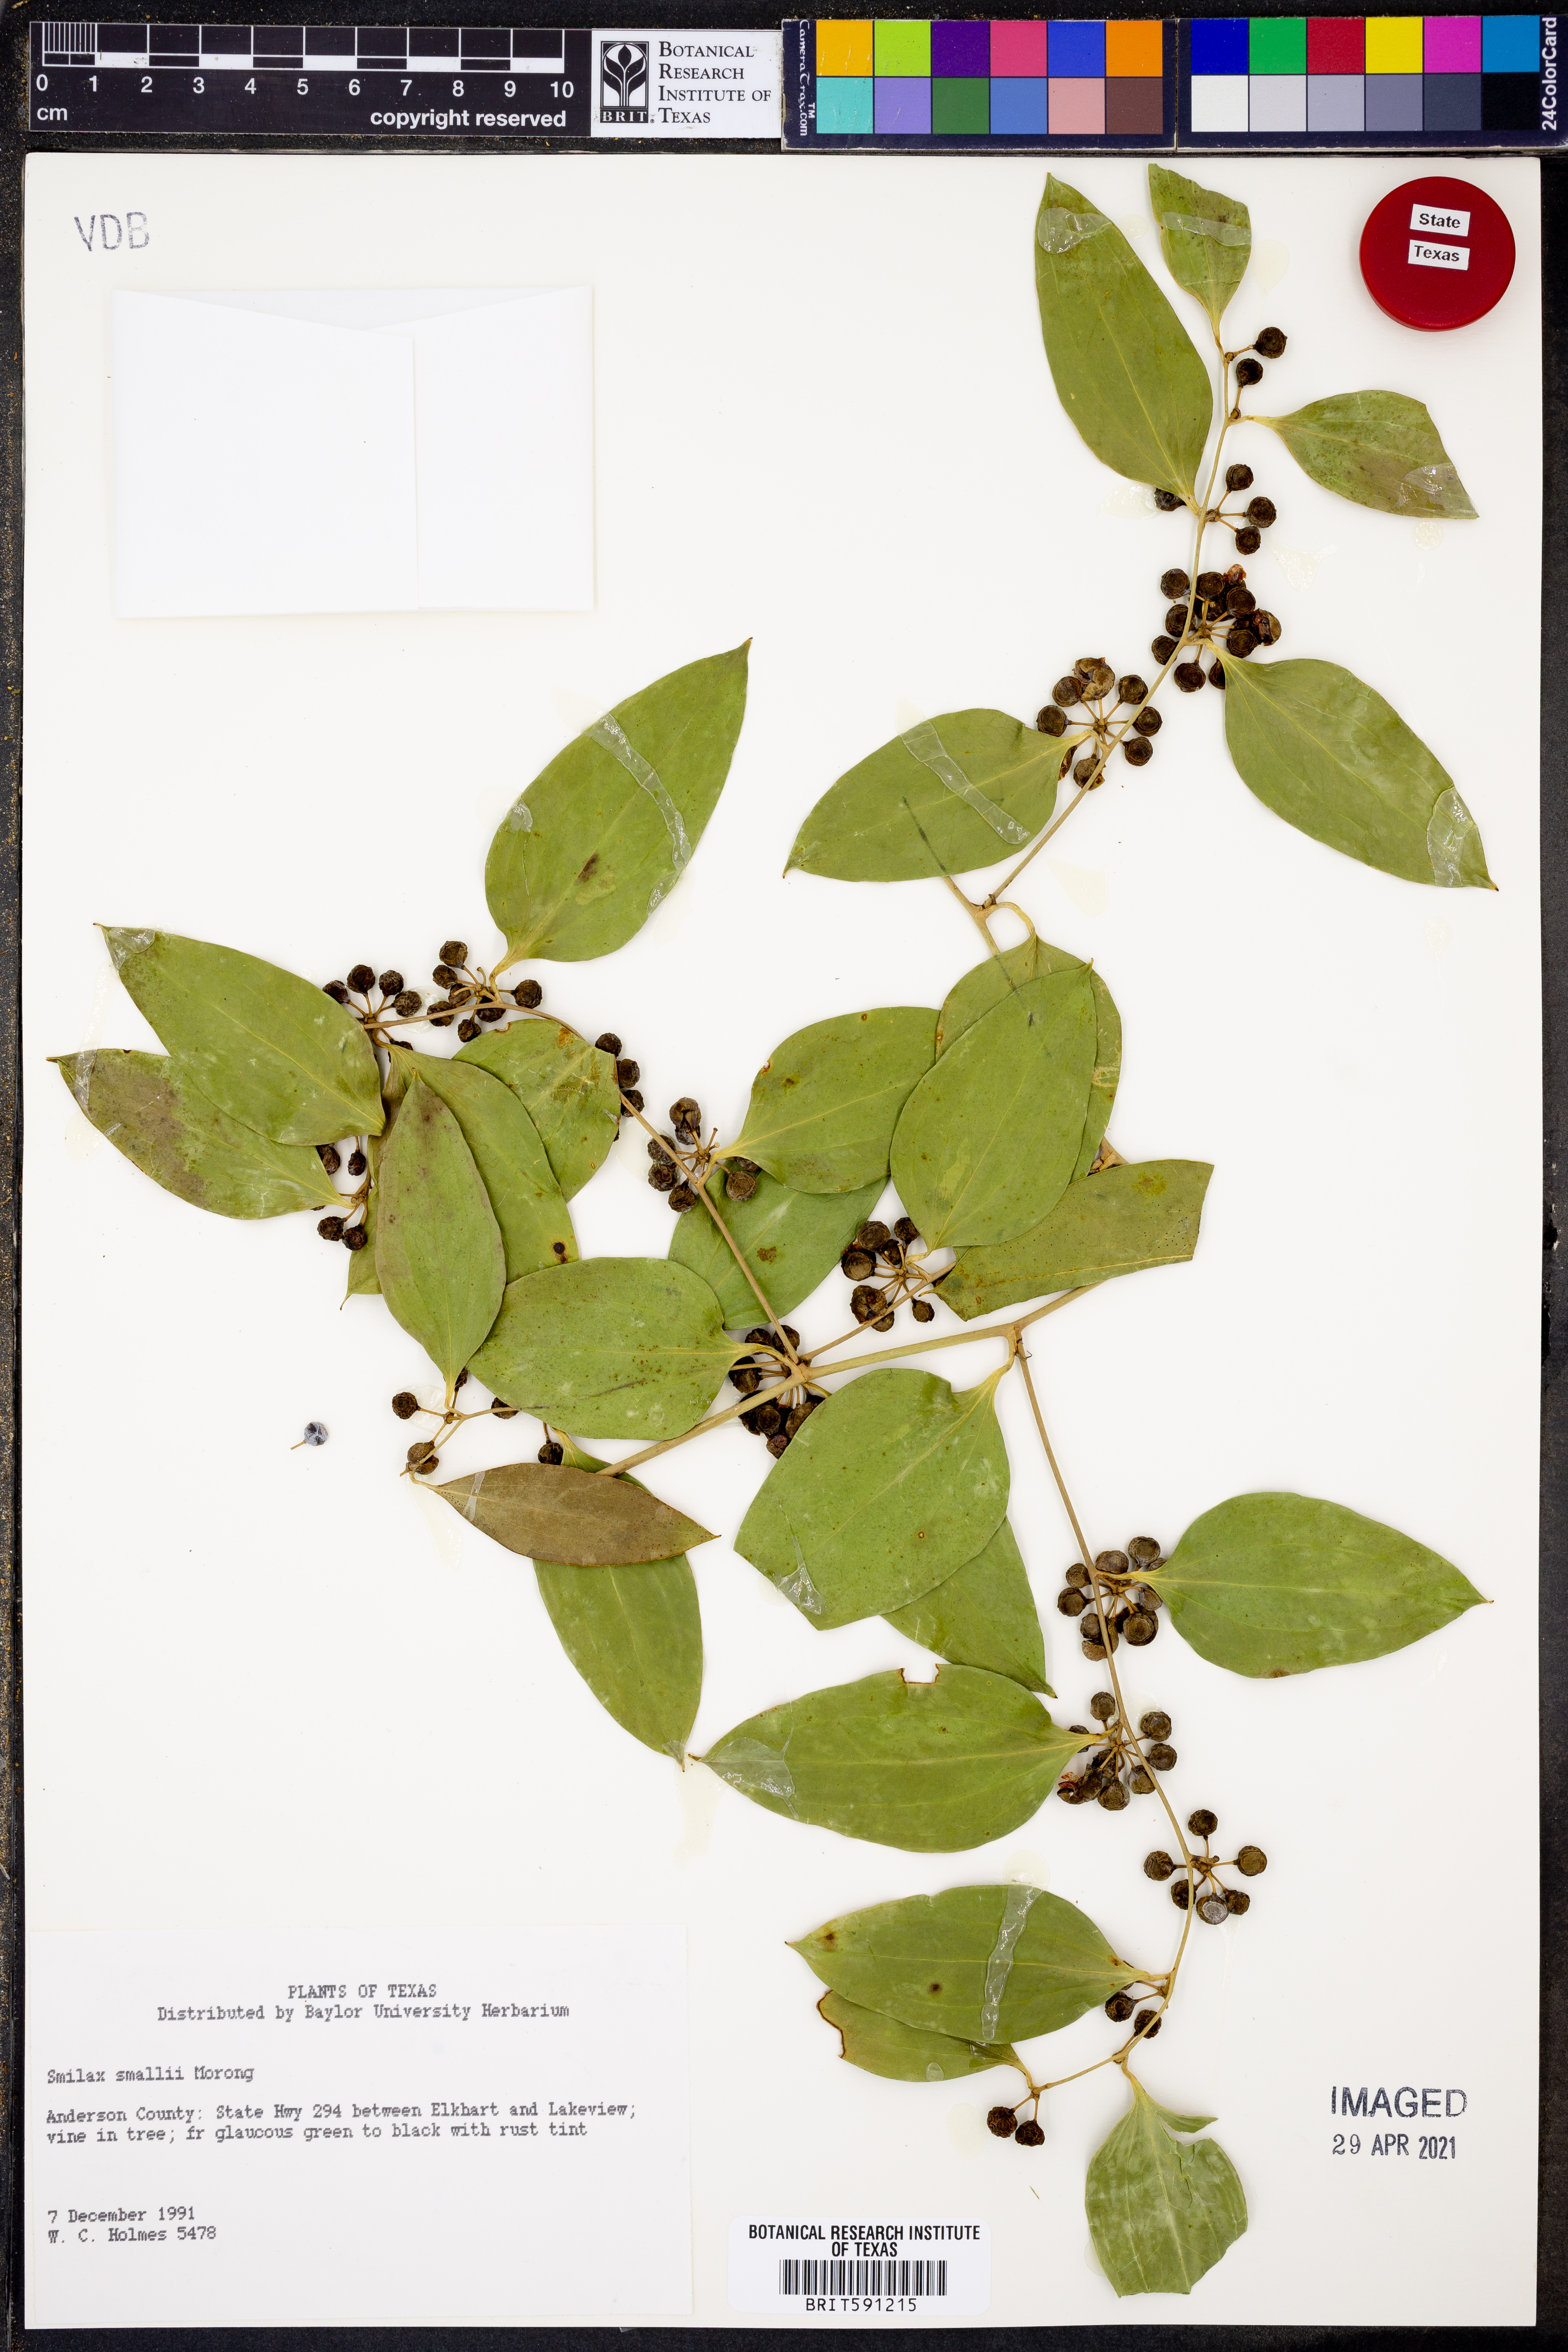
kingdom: Plantae
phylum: Tracheophyta
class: Liliopsida
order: Liliales
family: Smilacaceae
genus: Smilax
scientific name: Smilax maritima
